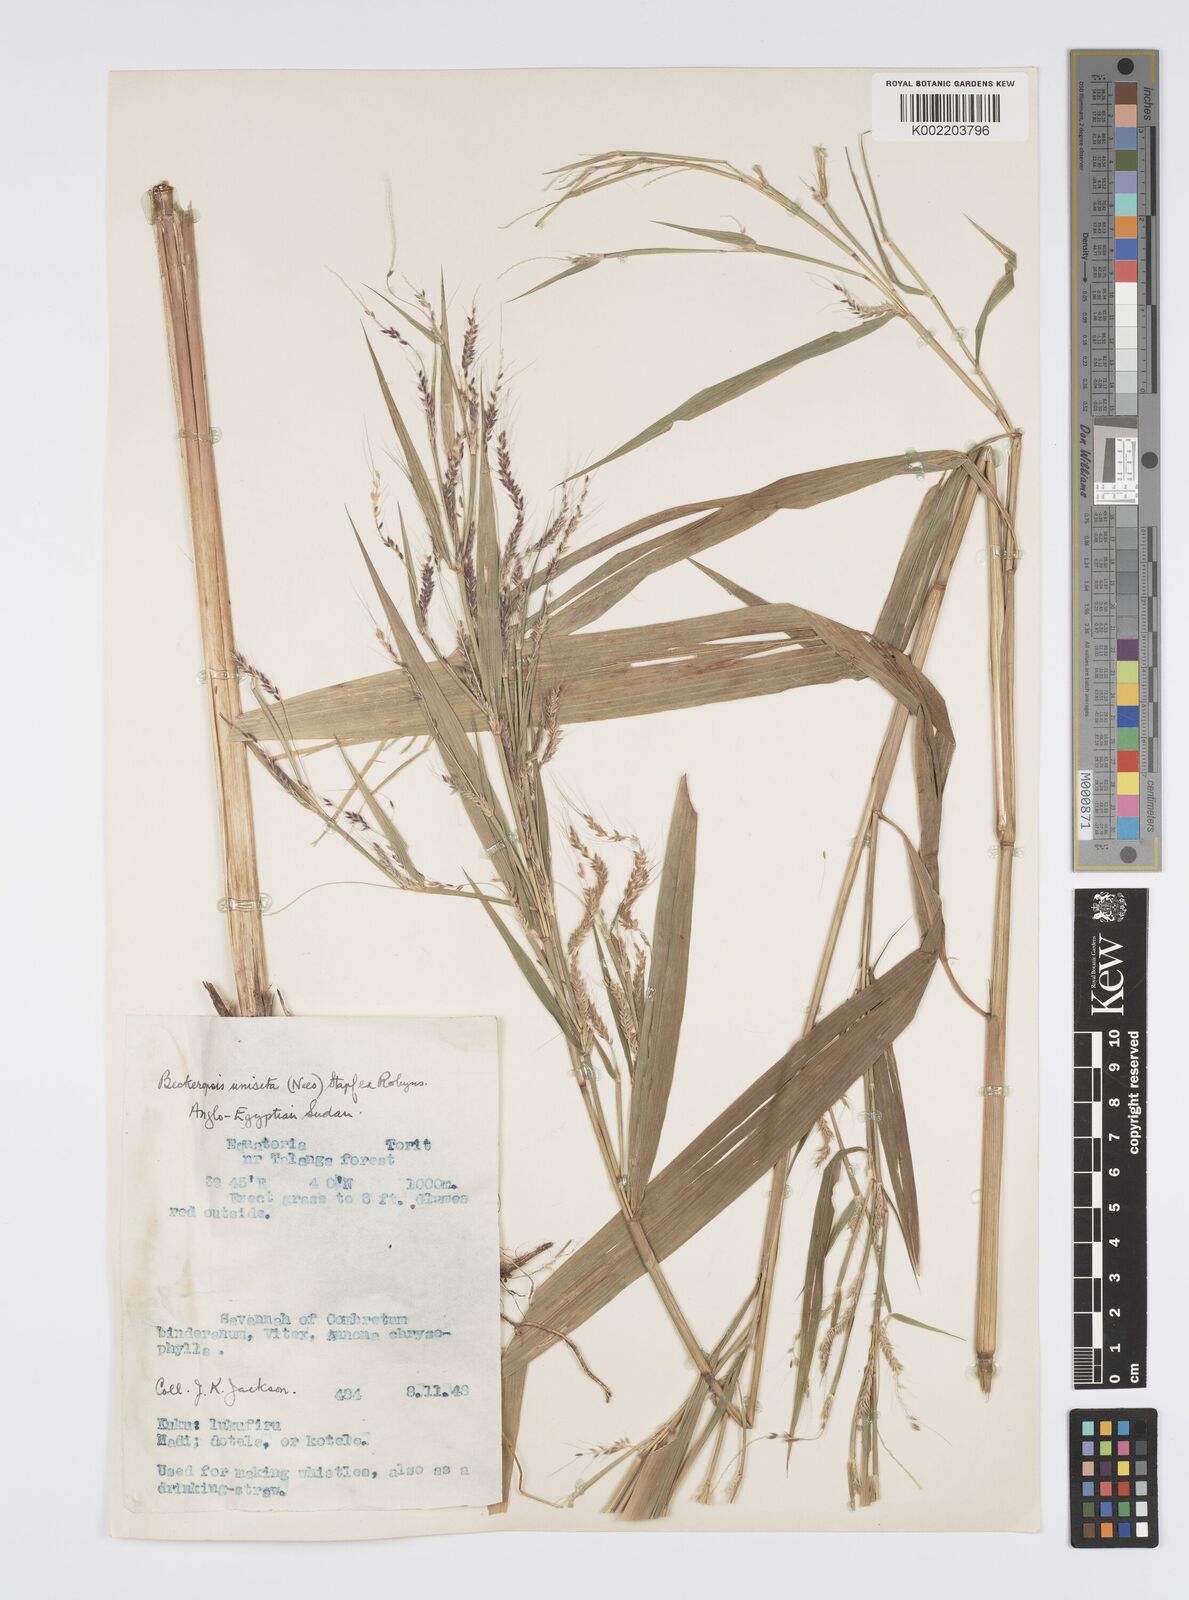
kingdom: Plantae
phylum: Tracheophyta
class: Liliopsida
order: Poales
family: Poaceae
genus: Cenchrus
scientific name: Cenchrus unisetus
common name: Natal grass
